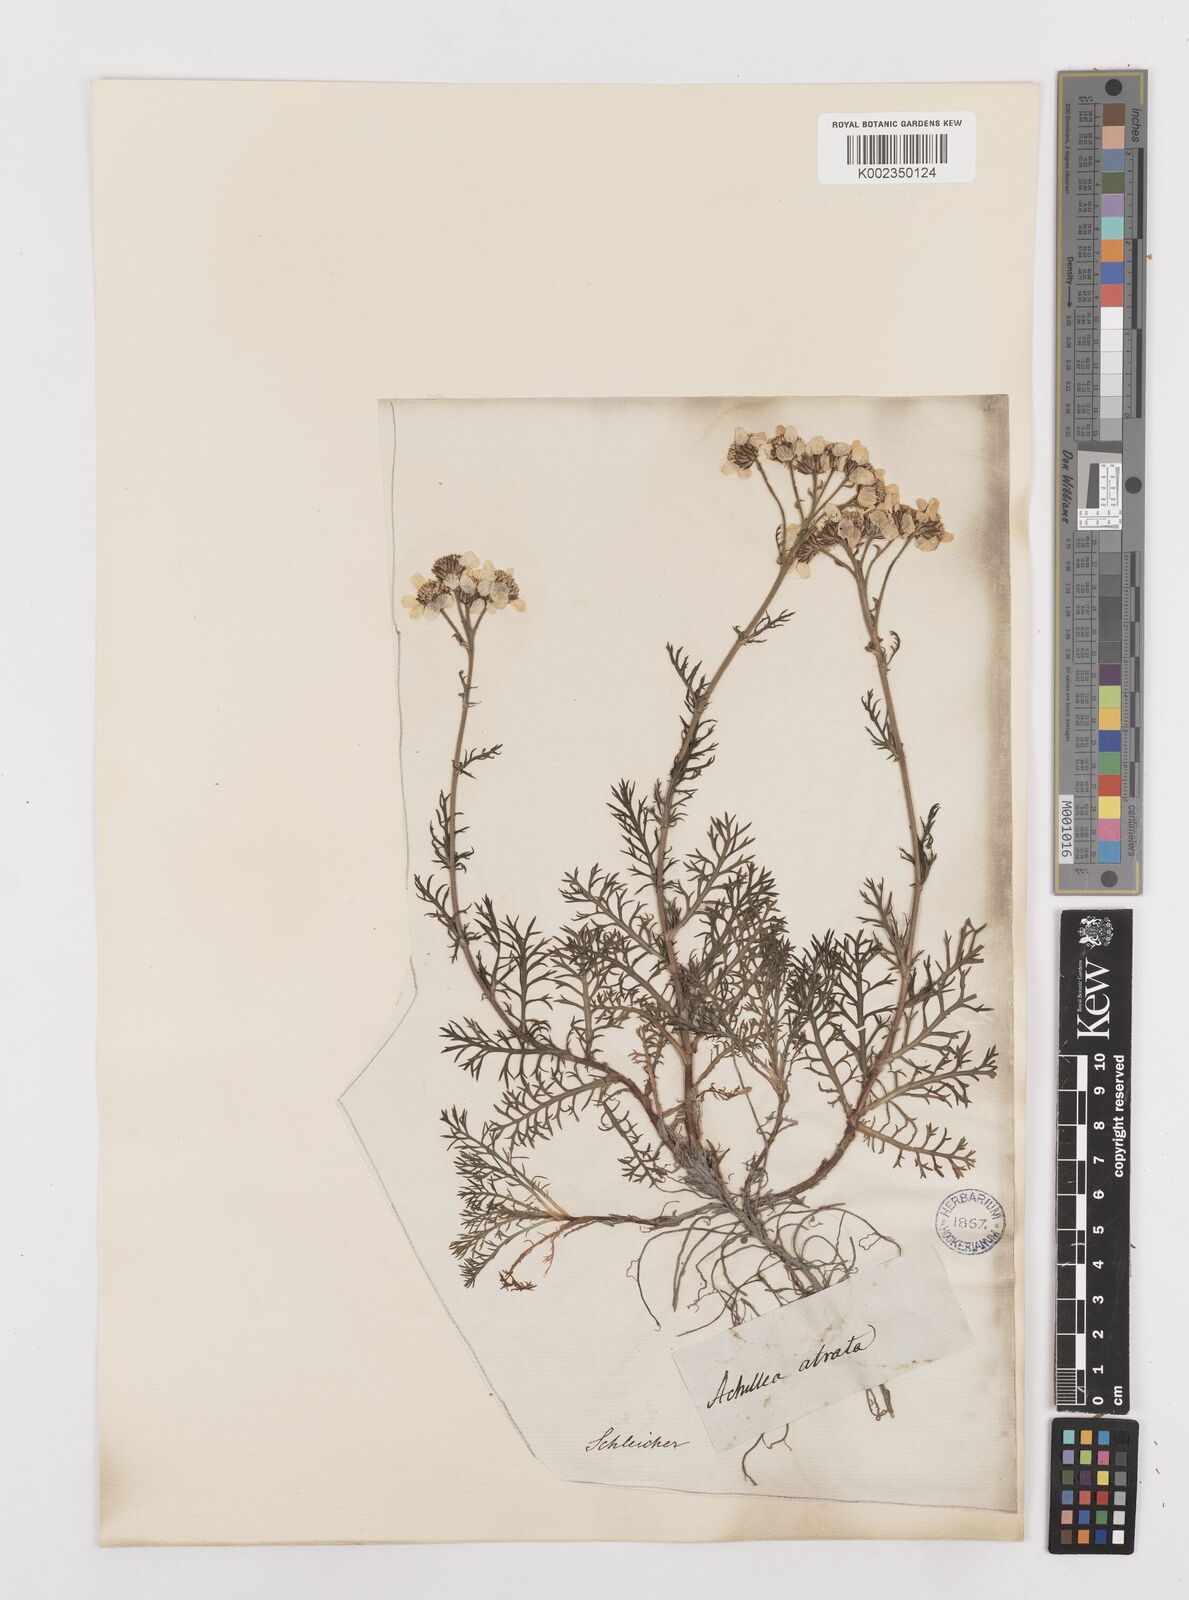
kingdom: Plantae
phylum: Tracheophyta
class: Magnoliopsida
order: Asterales
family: Asteraceae
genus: Achillea
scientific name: Achillea atrata
